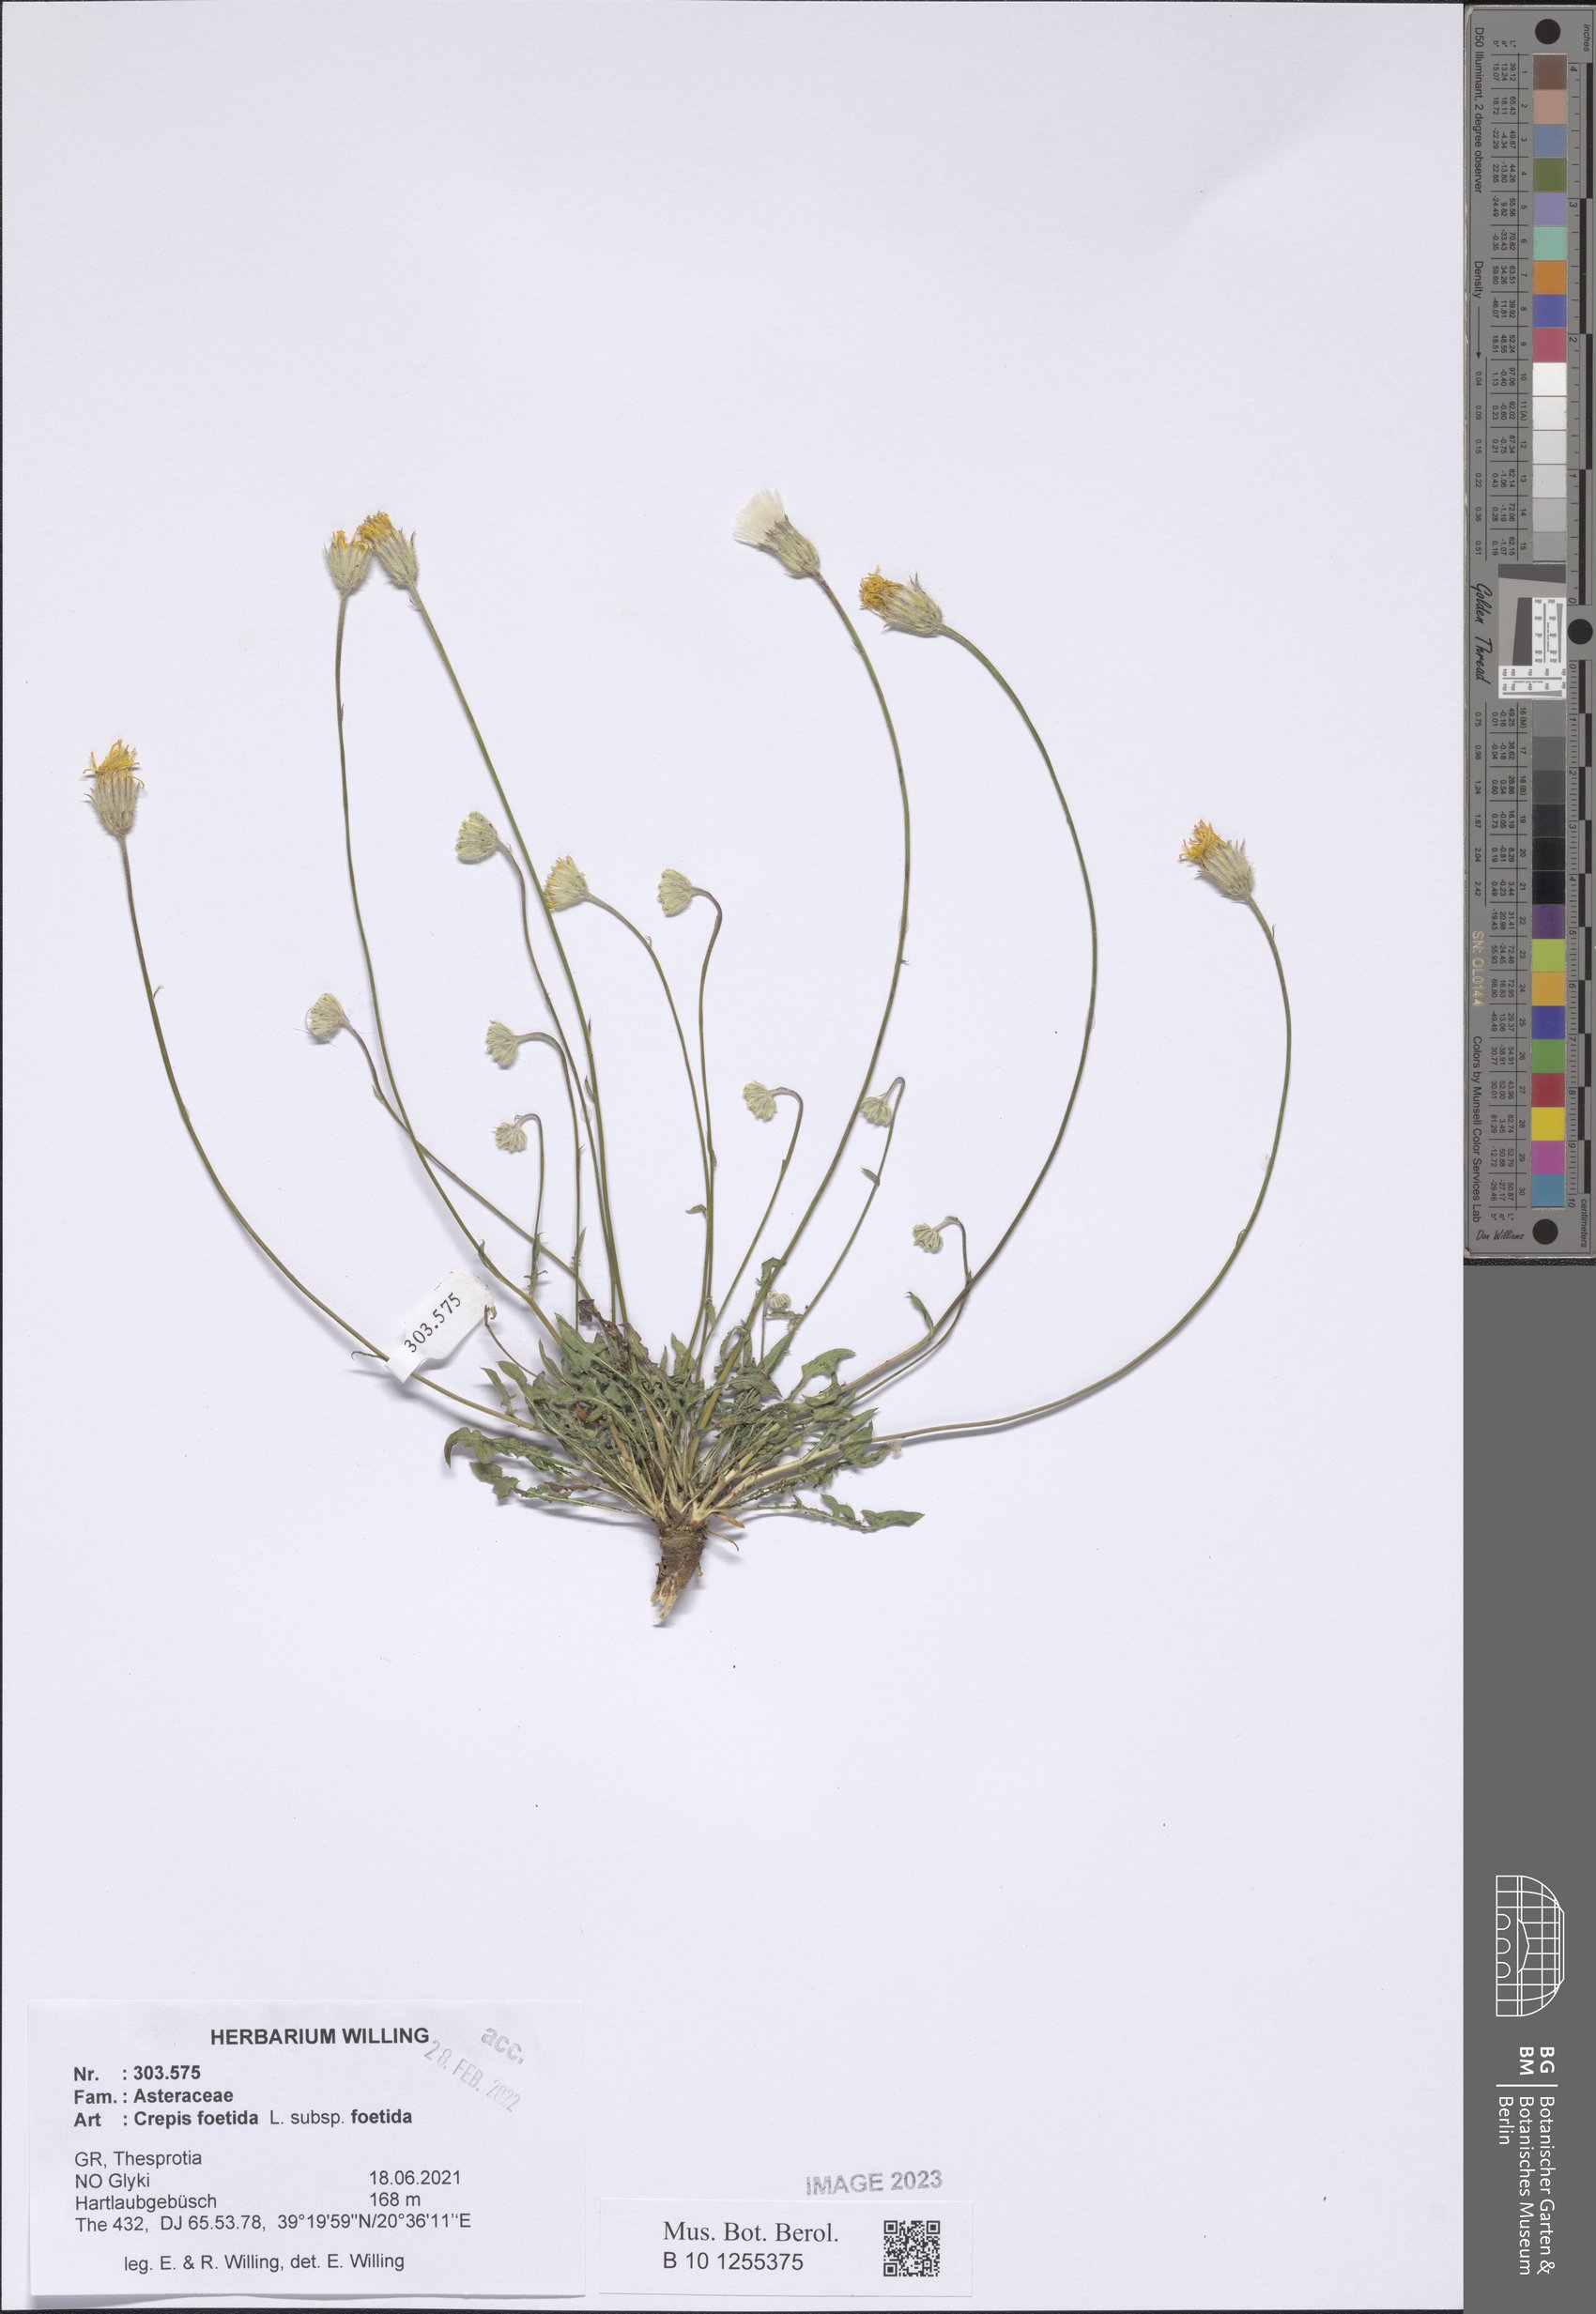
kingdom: Plantae
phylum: Tracheophyta
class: Magnoliopsida
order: Asterales
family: Asteraceae
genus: Crepis
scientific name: Crepis foetida
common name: Stinking hawk's-beard
